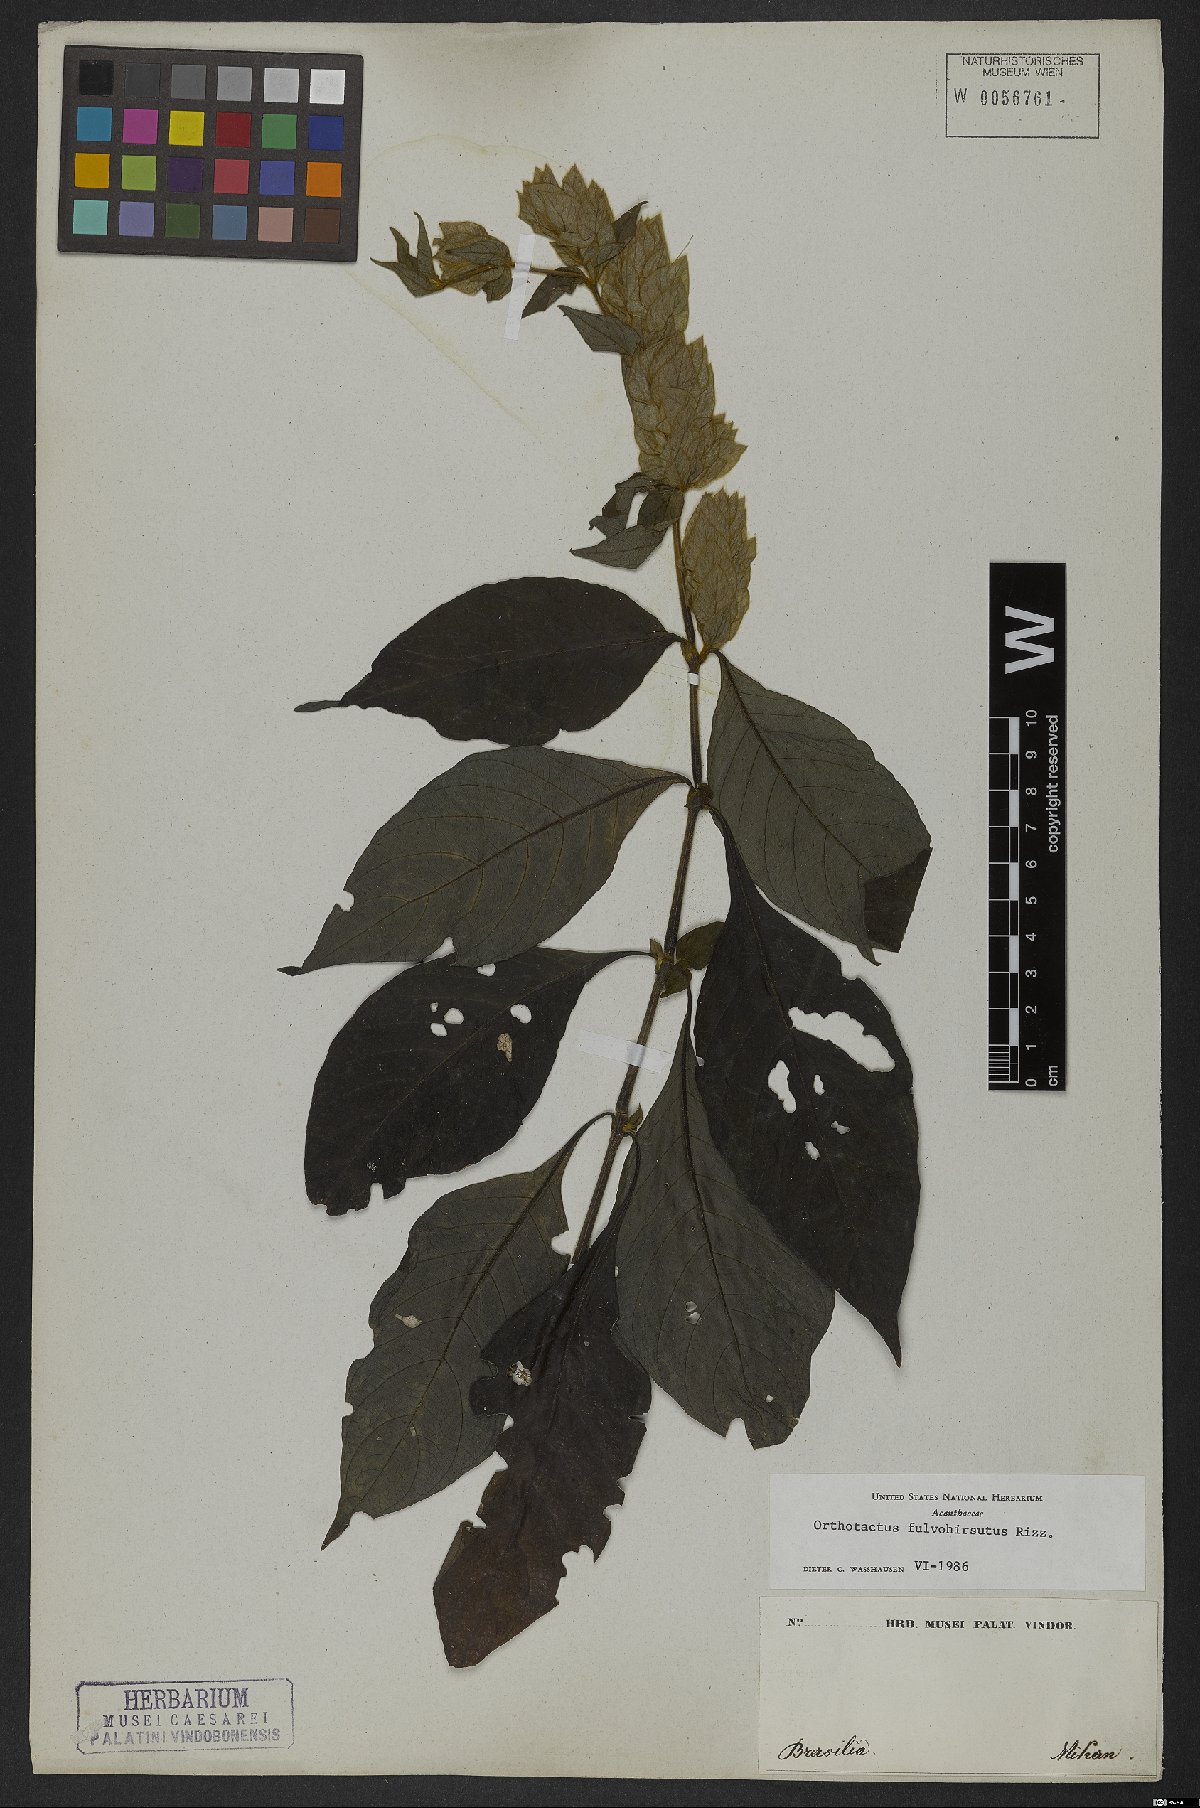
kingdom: Plantae
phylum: Tracheophyta
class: Magnoliopsida
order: Lamiales
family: Acanthaceae
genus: Justicia
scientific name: Justicia fulvohirsuta
